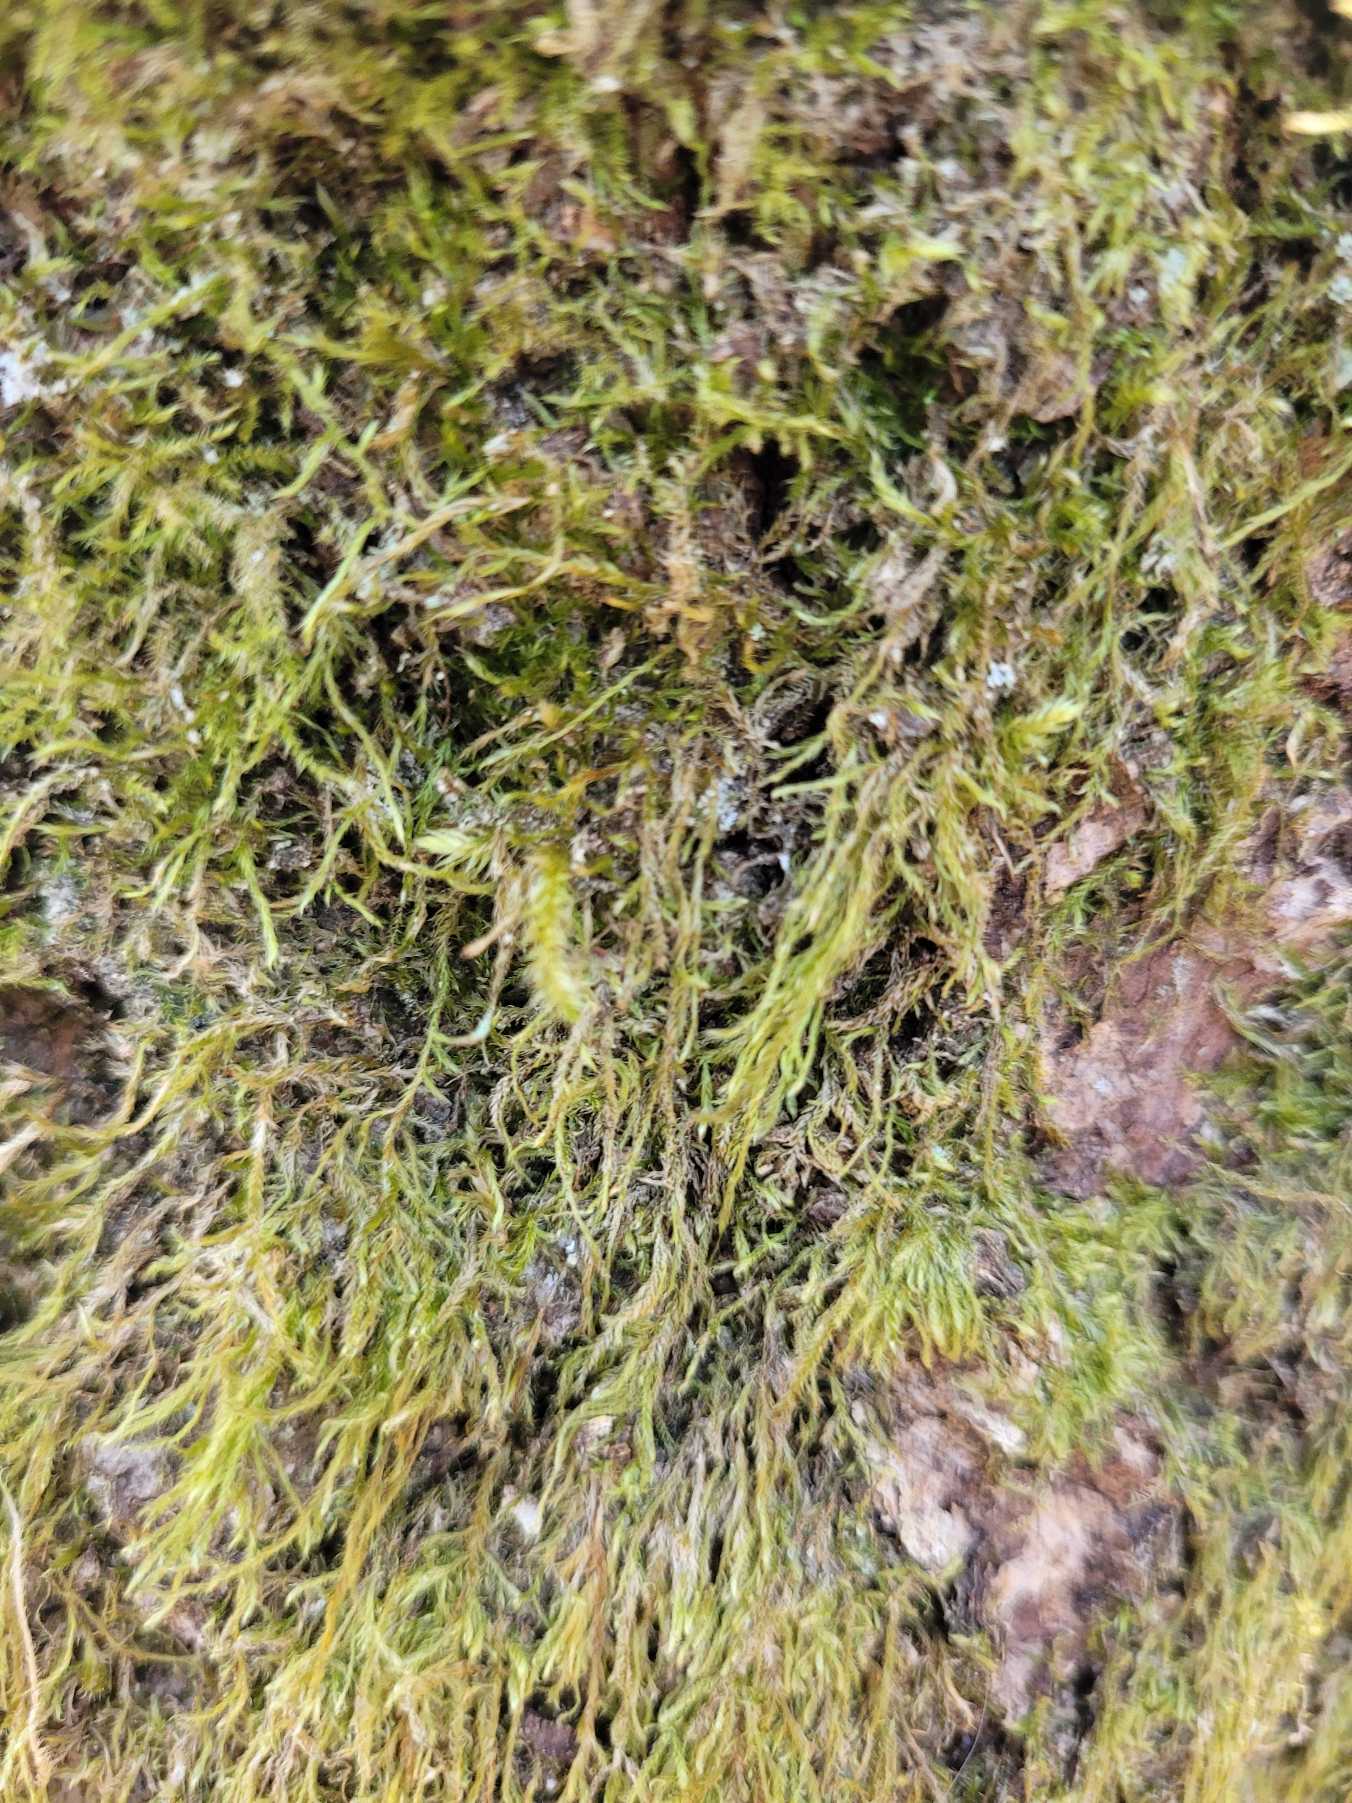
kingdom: Plantae
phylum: Bryophyta
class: Bryopsida
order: Hypnales
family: Hypnaceae
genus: Hypnum
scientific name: Hypnum
